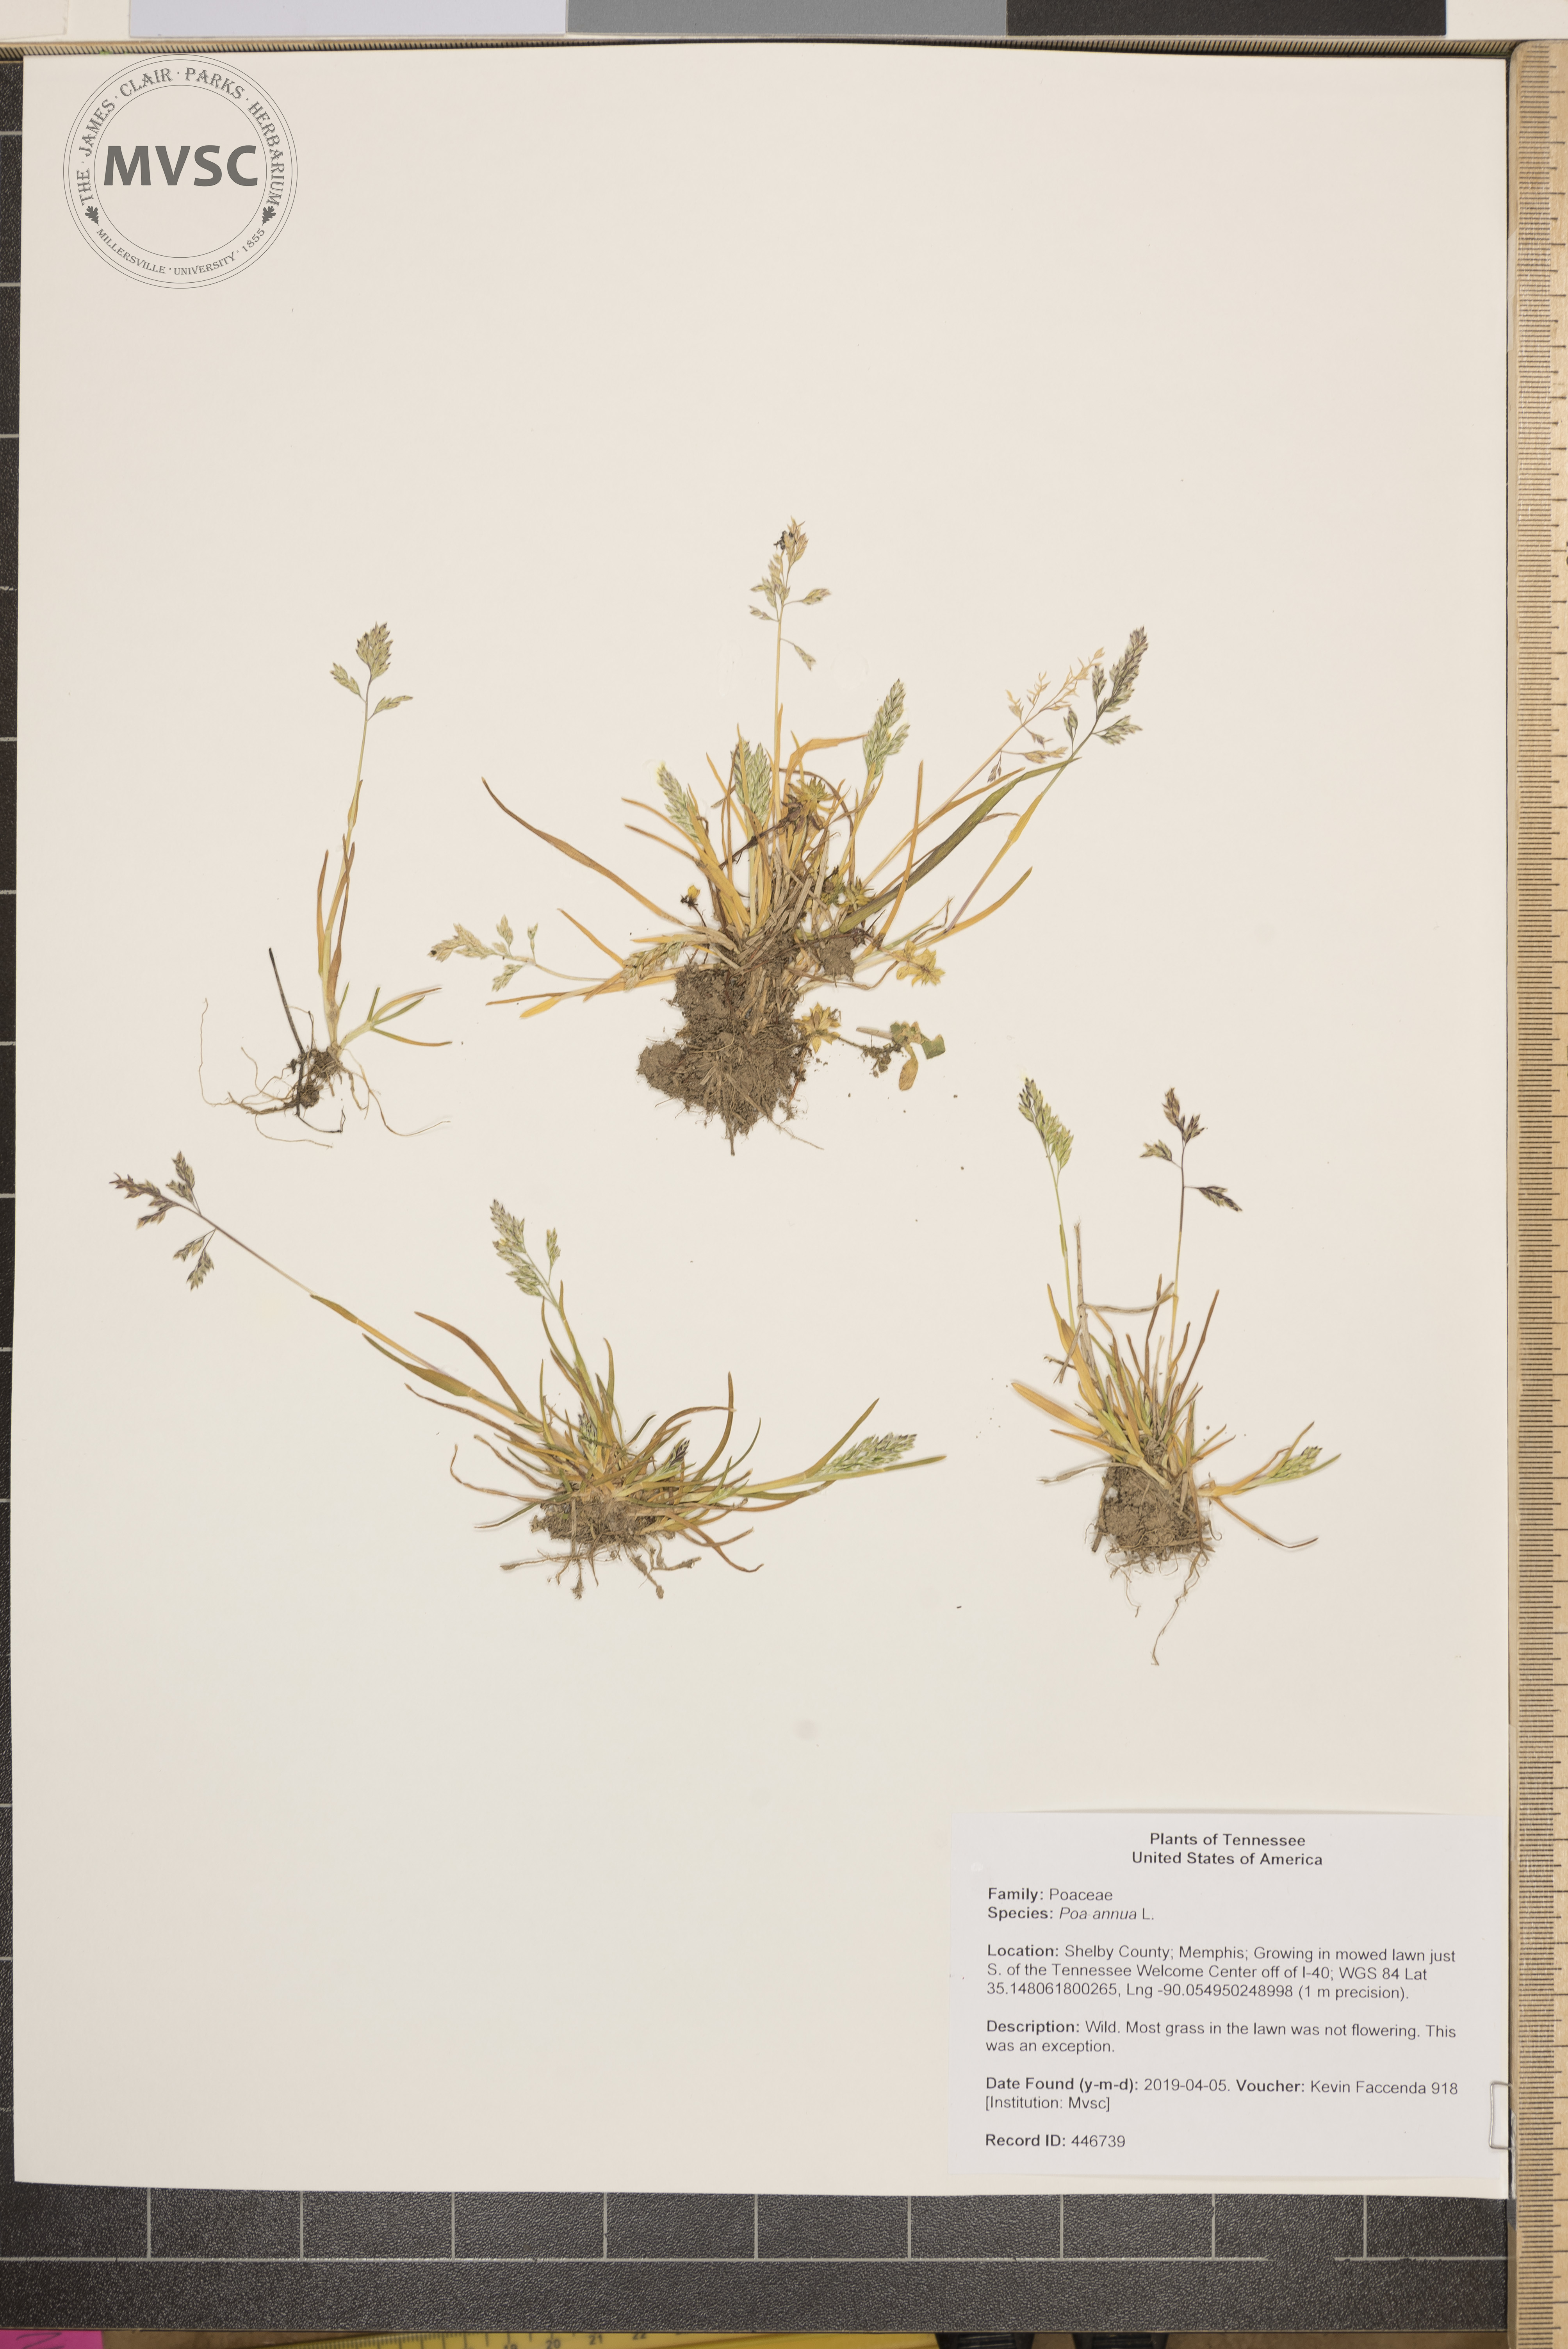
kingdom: Plantae
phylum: Tracheophyta
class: Liliopsida
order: Poales
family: Poaceae
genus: Poa
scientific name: Poa annua
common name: Annual bluegrass
